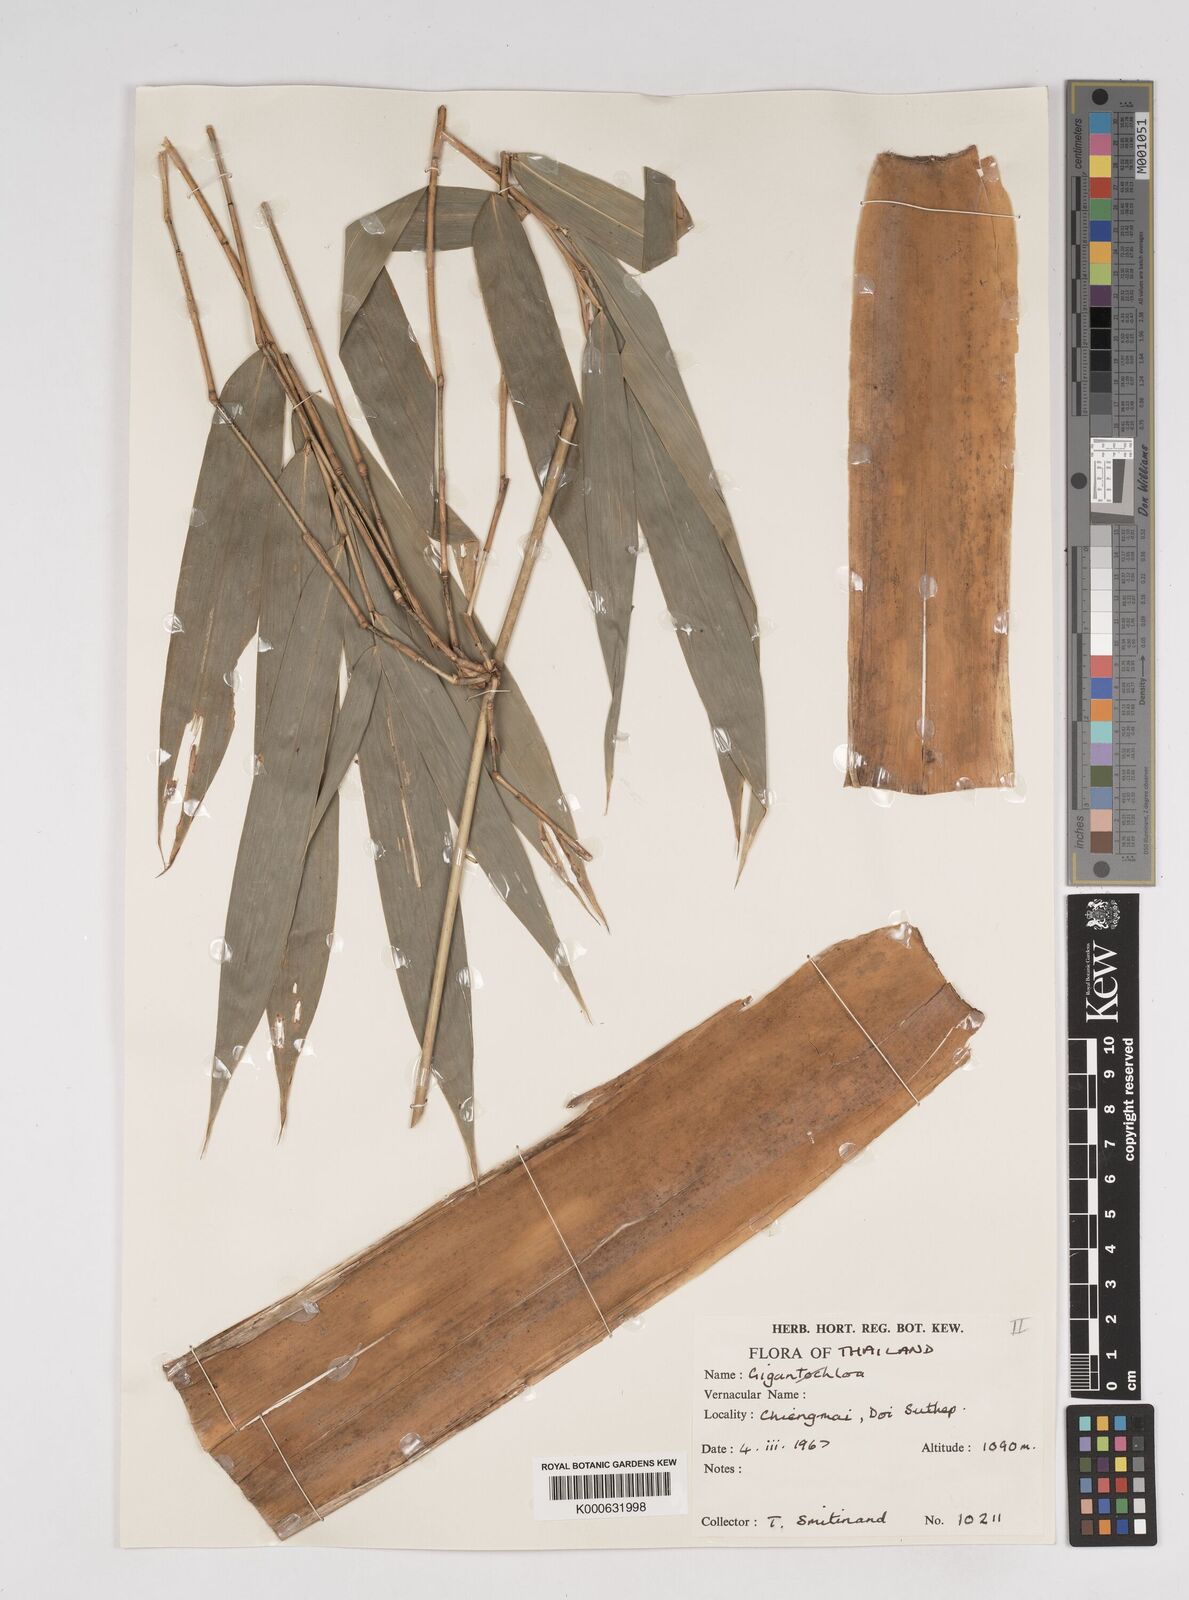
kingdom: Plantae
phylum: Tracheophyta
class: Liliopsida
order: Poales
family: Poaceae
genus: Dendrocalamus
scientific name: Dendrocalamus
